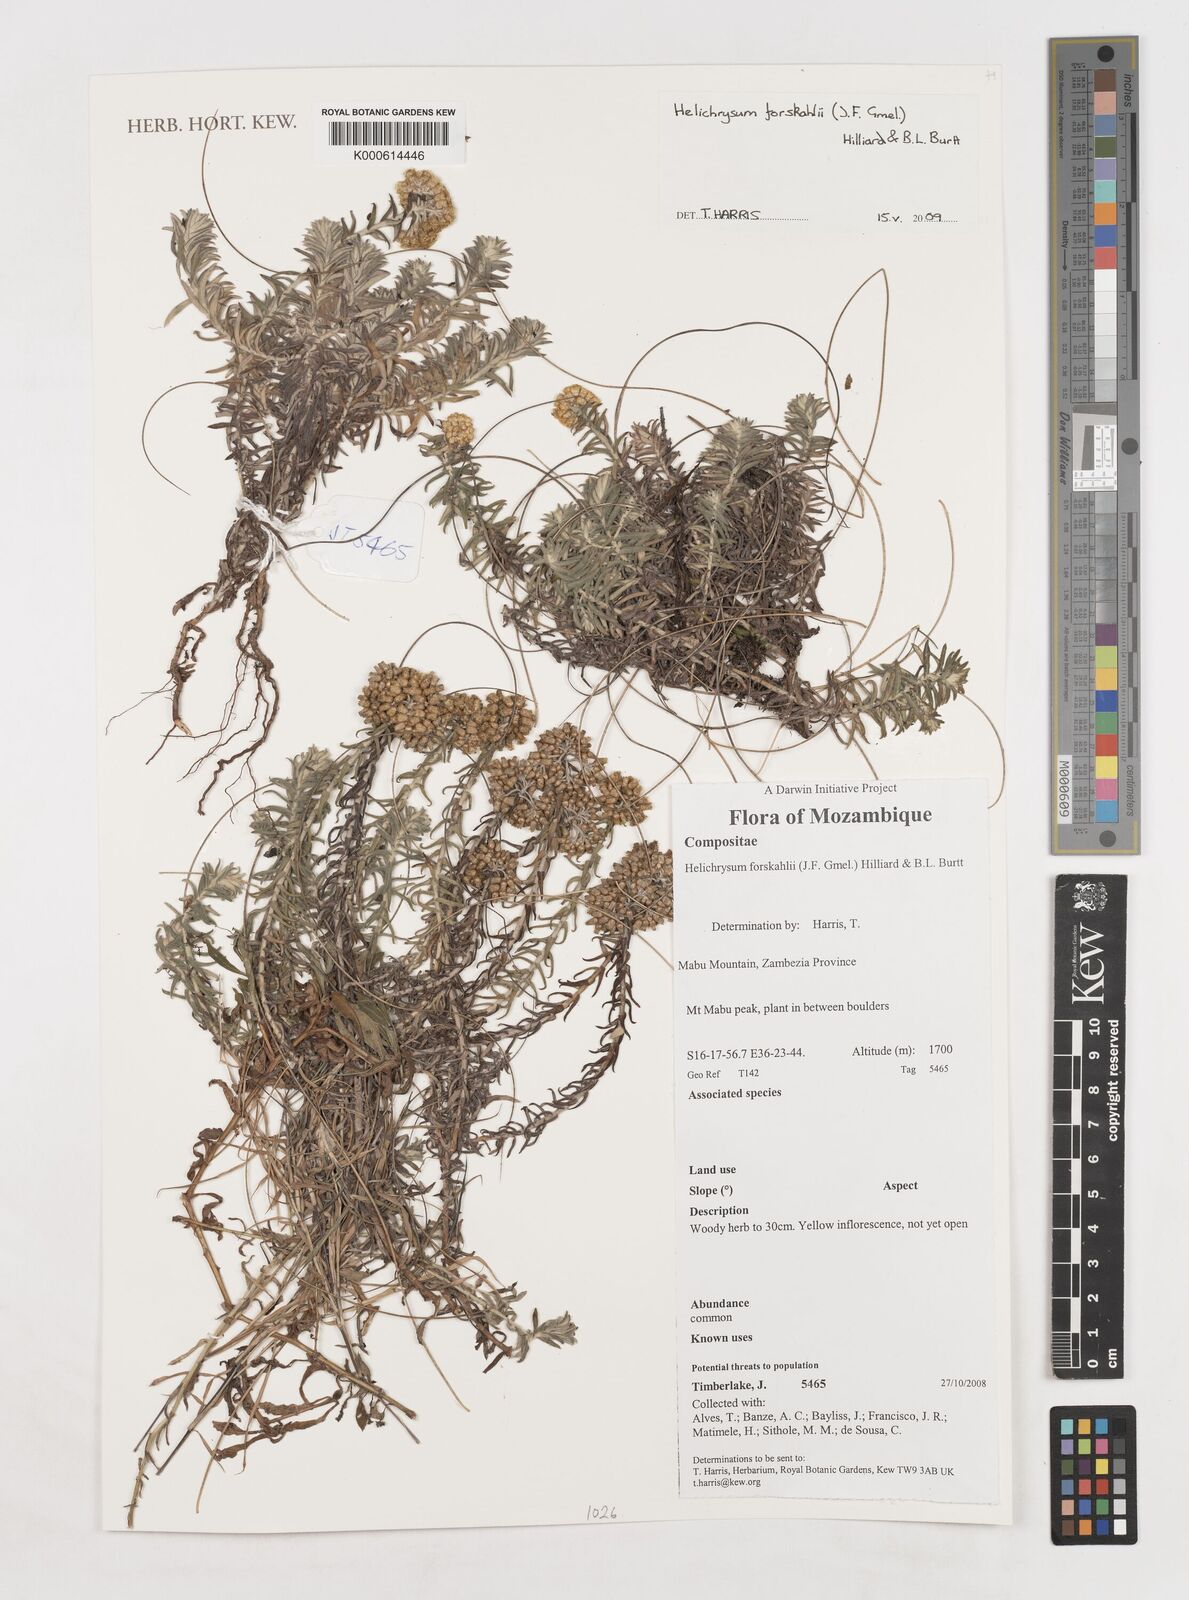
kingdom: Plantae
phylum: Tracheophyta
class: Magnoliopsida
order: Asterales
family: Asteraceae
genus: Helichrysum
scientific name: Helichrysum forskahlii
